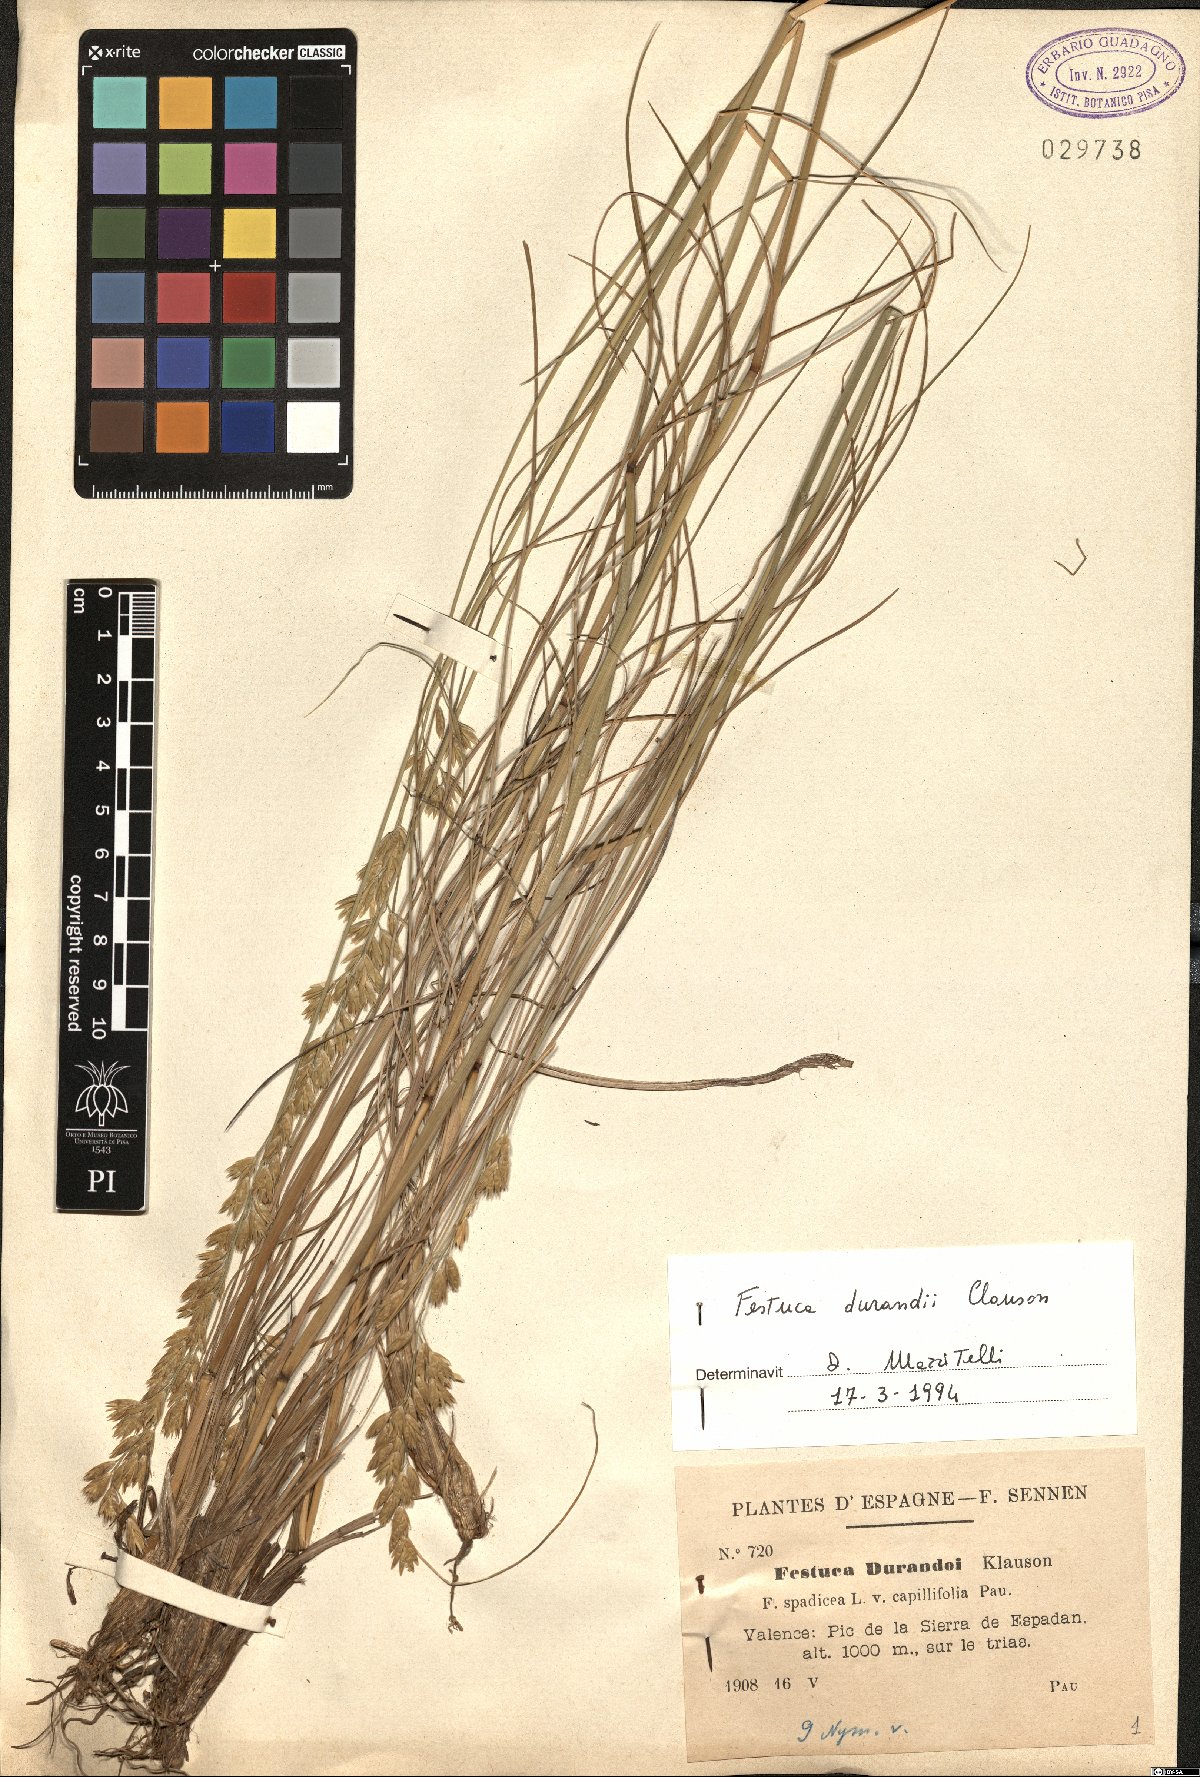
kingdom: Plantae
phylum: Tracheophyta
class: Liliopsida
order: Poales
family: Poaceae
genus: Patzkea
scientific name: Patzkea durandoi
